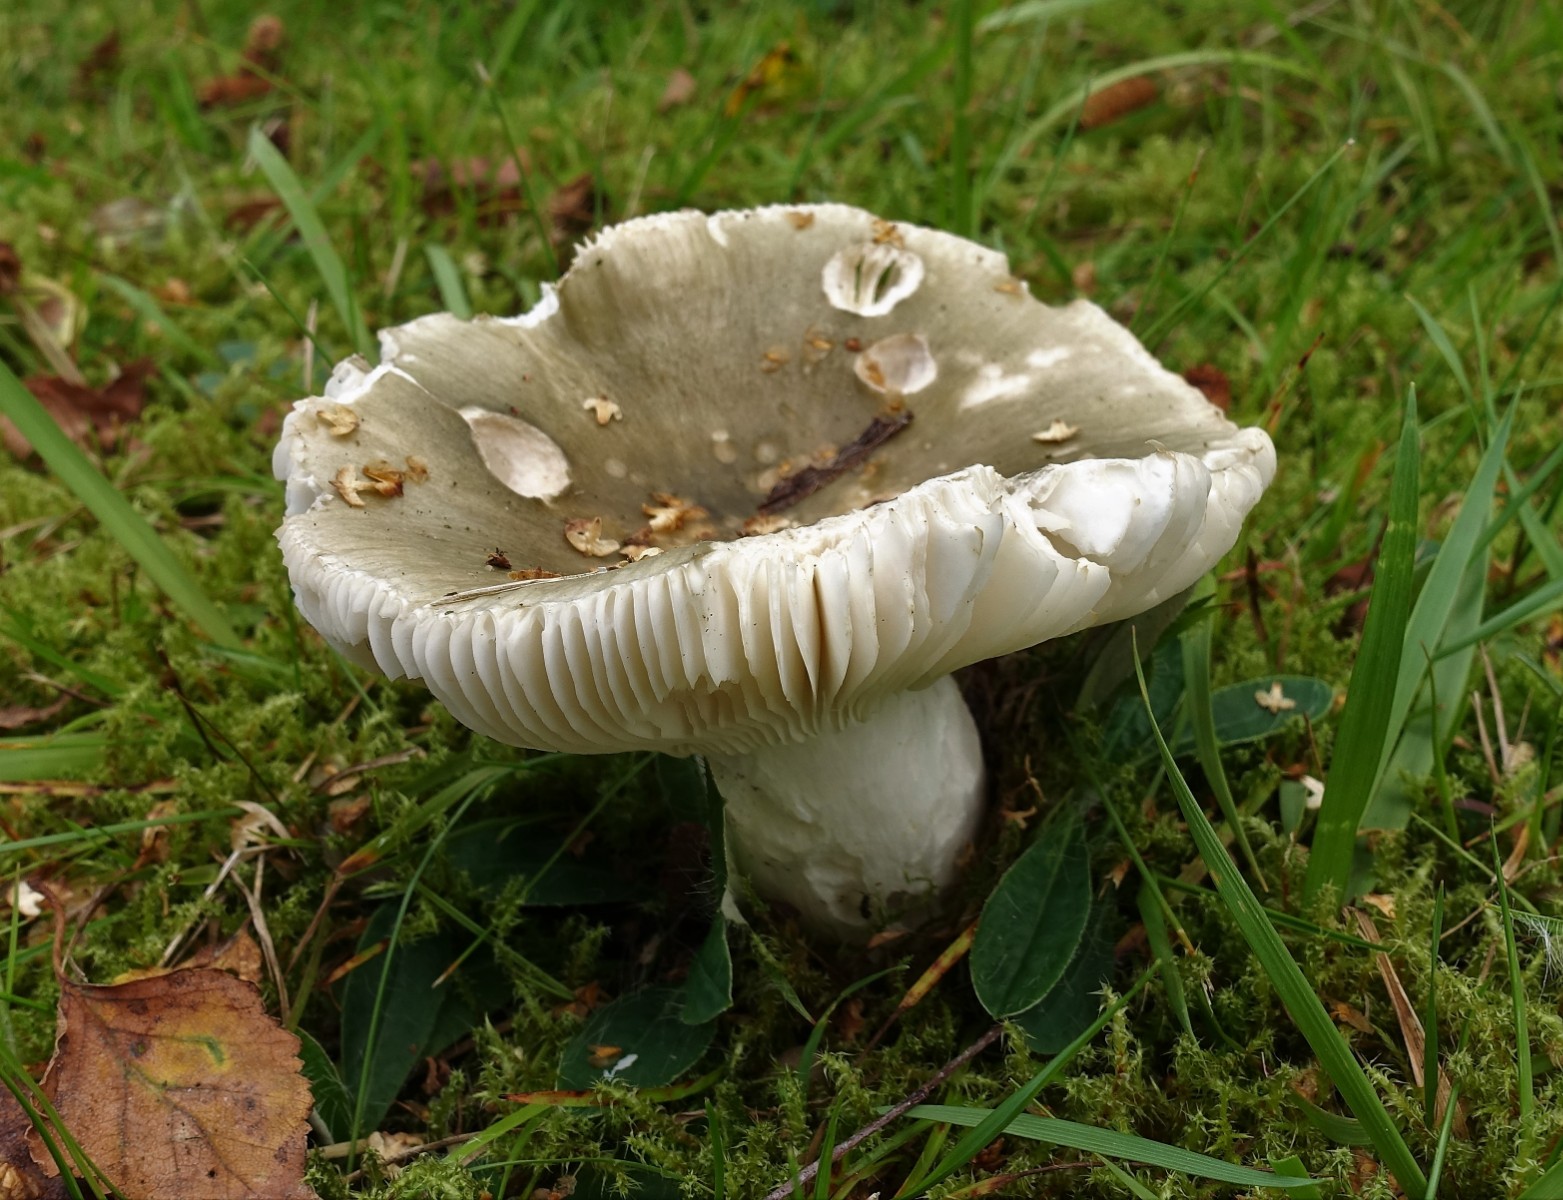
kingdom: Fungi
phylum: Basidiomycota
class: Agaricomycetes
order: Russulales
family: Russulaceae
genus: Russula
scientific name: Russula aeruginea
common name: græsgrøn skørhat
